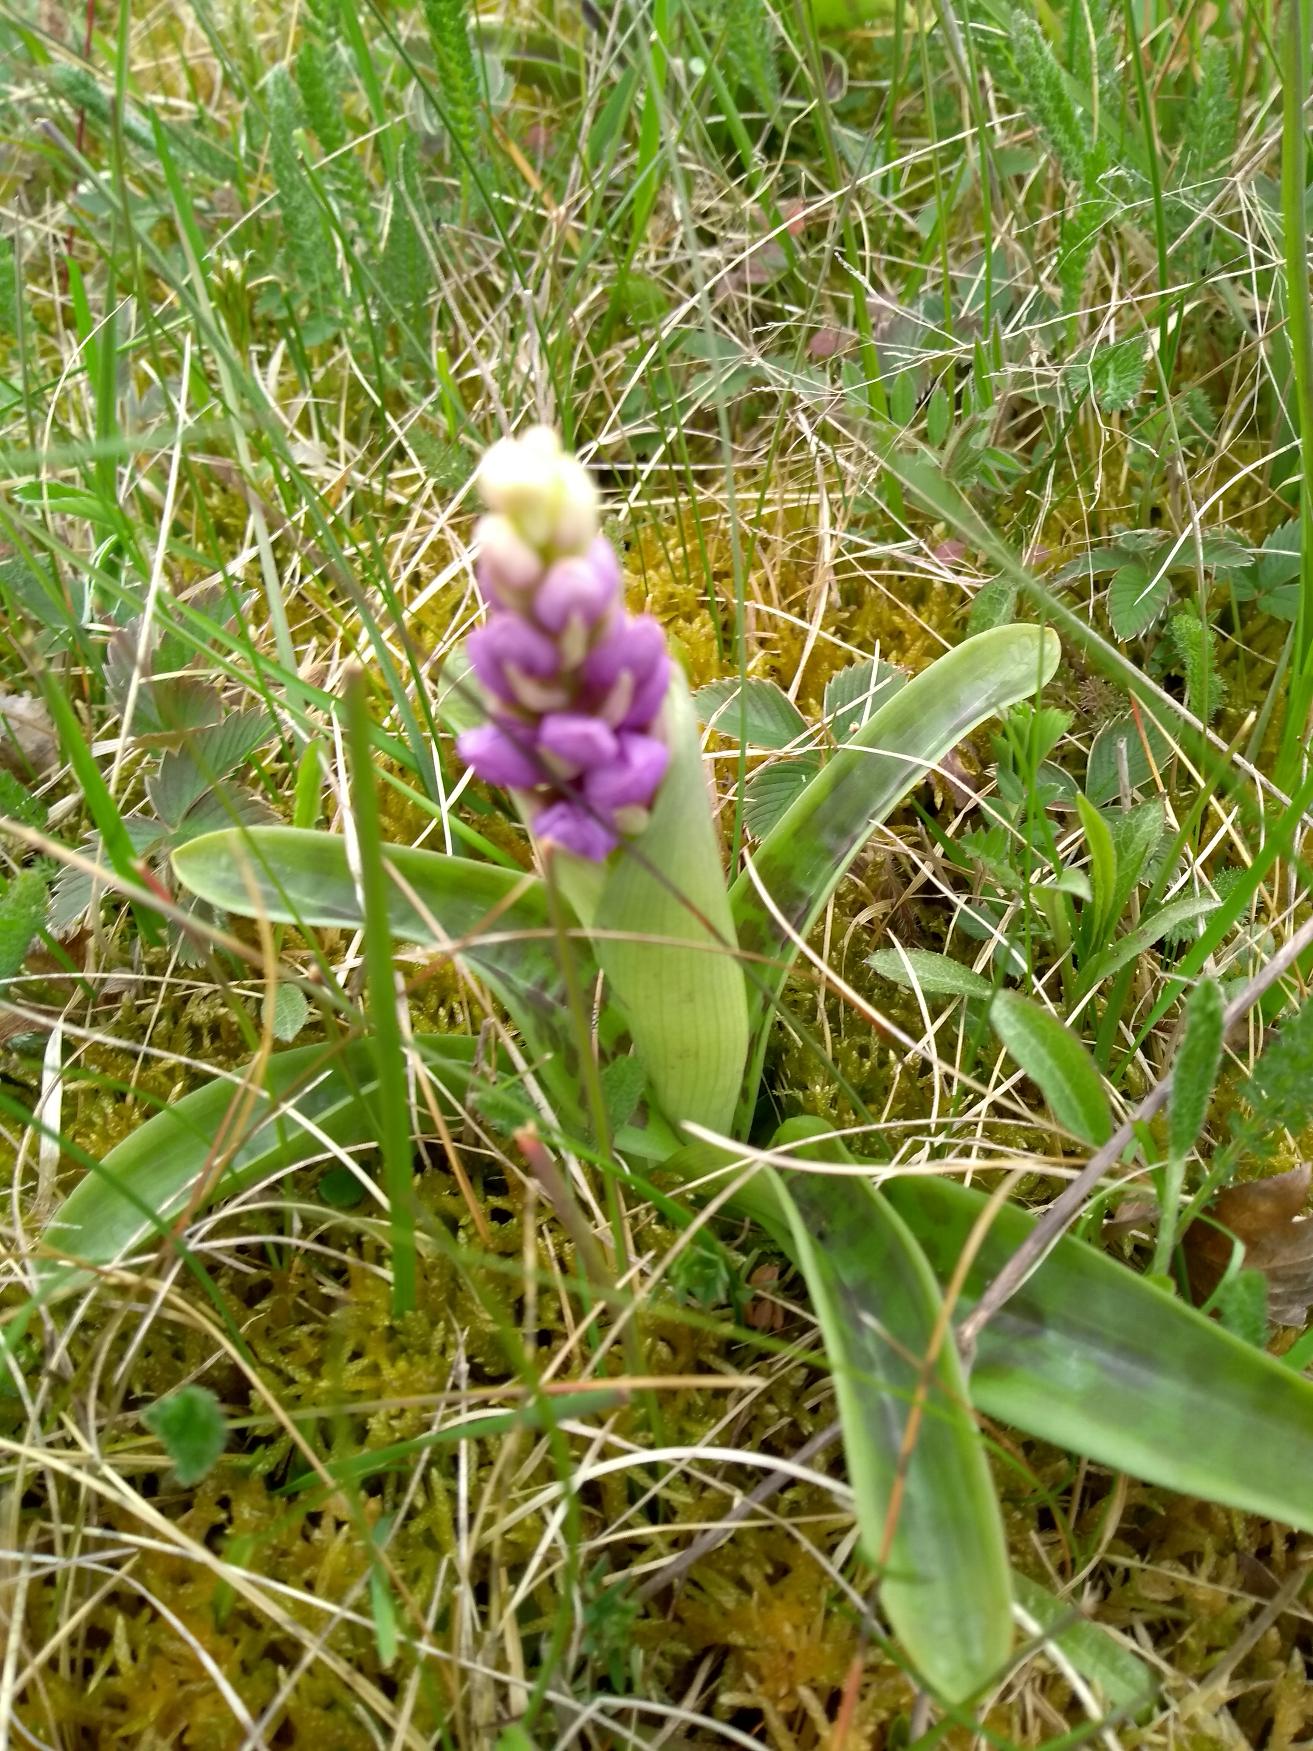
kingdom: Plantae
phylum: Tracheophyta
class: Liliopsida
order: Asparagales
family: Orchidaceae
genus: Orchis
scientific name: Orchis mascula
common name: Tyndakset gøgeurt
